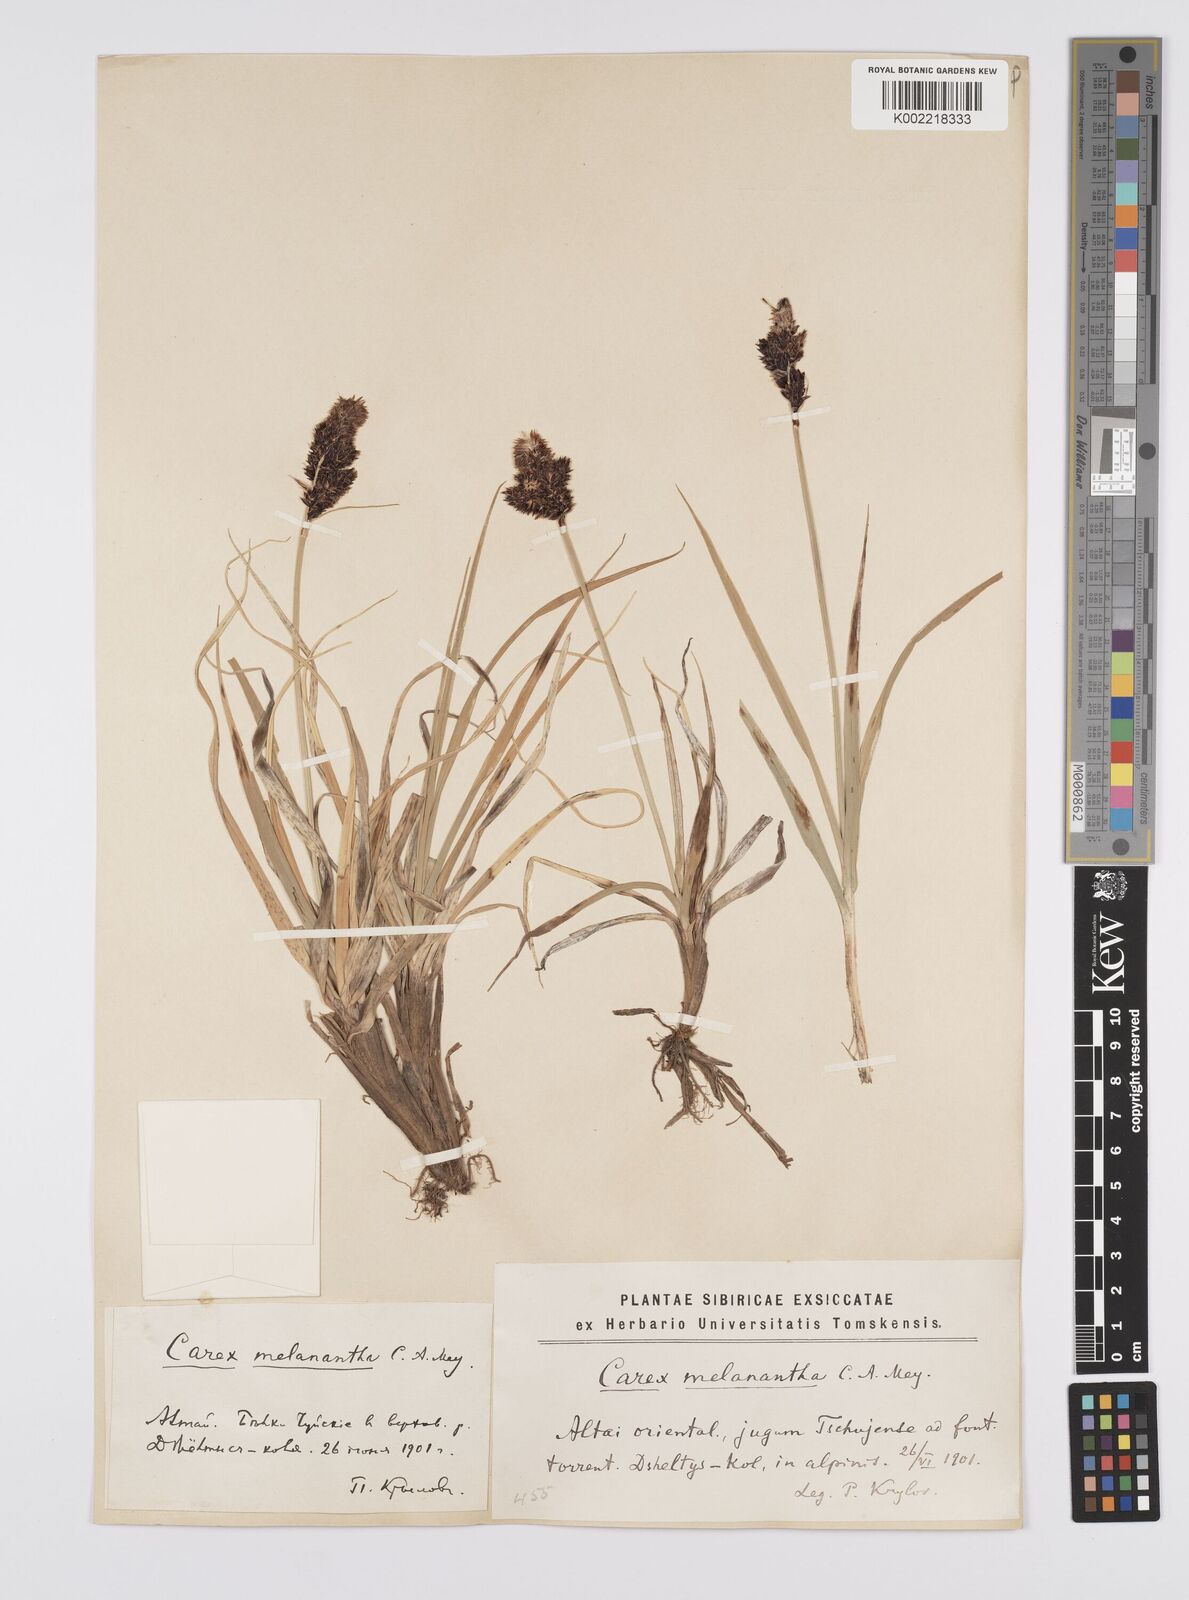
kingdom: Plantae
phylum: Tracheophyta
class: Liliopsida
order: Poales
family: Cyperaceae
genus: Carex
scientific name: Carex melanantha
